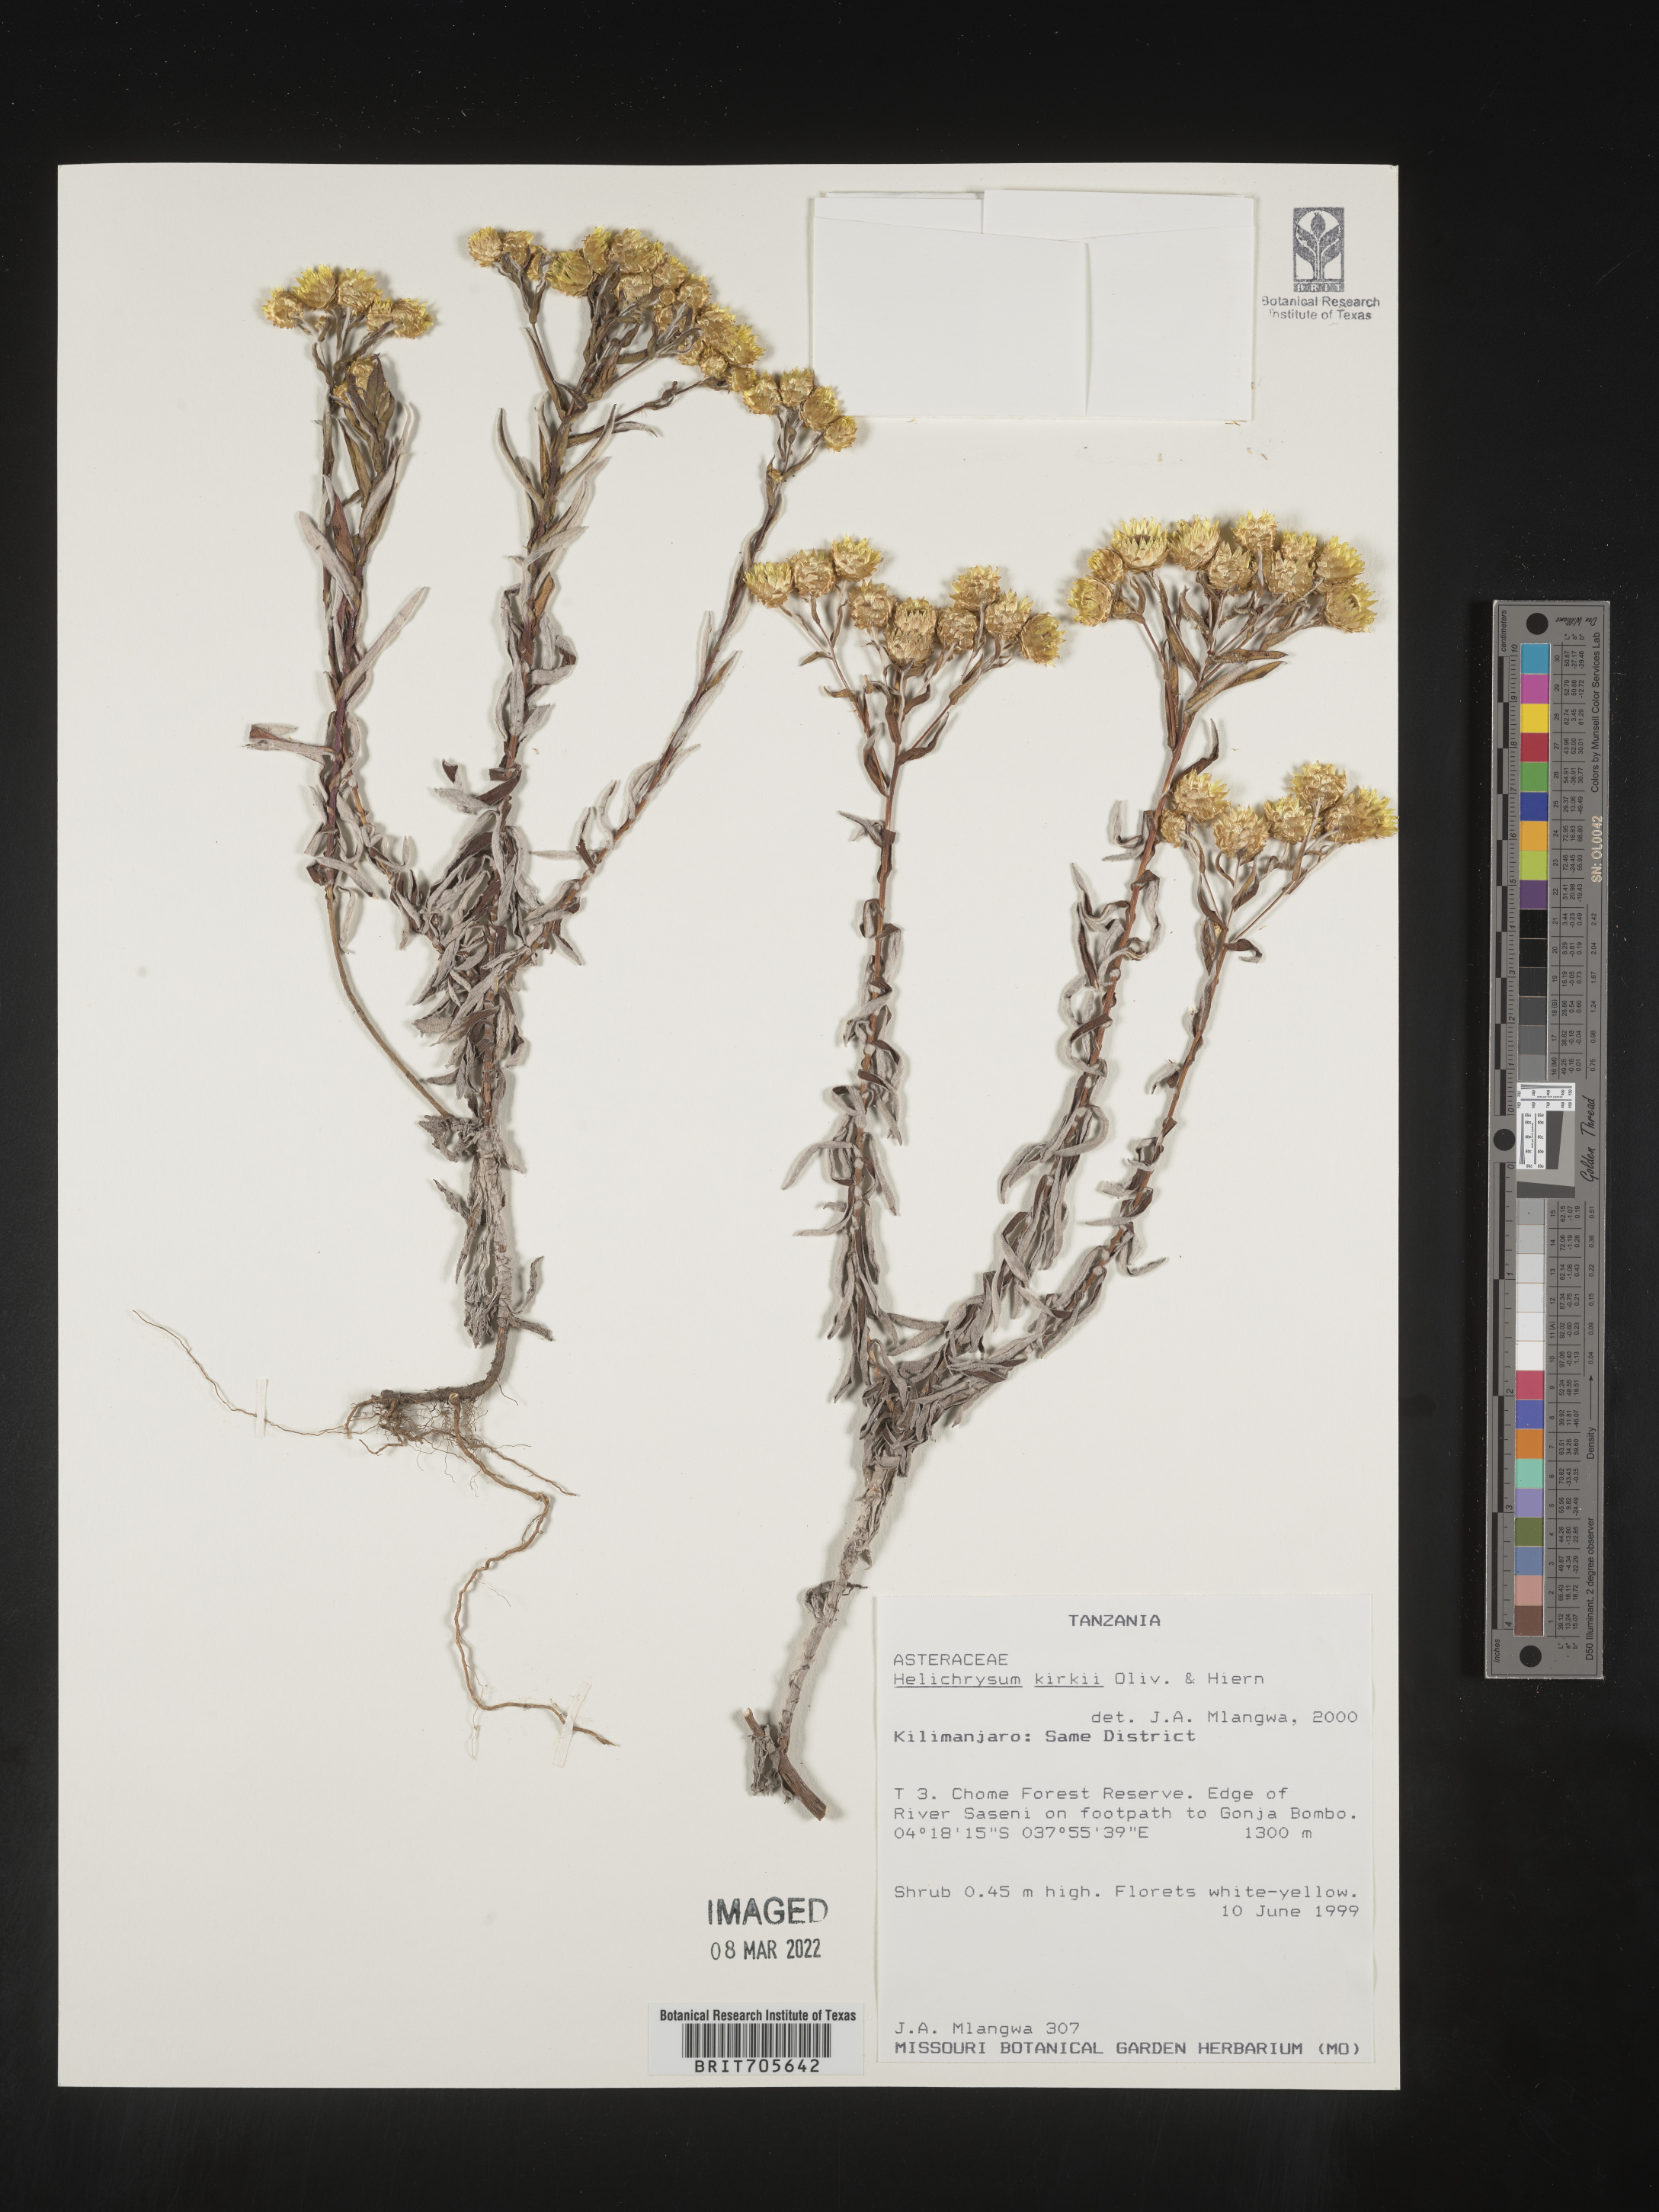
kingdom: Plantae
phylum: Tracheophyta
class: Magnoliopsida
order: Asterales
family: Asteraceae
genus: Helichrysum
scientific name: Helichrysum
